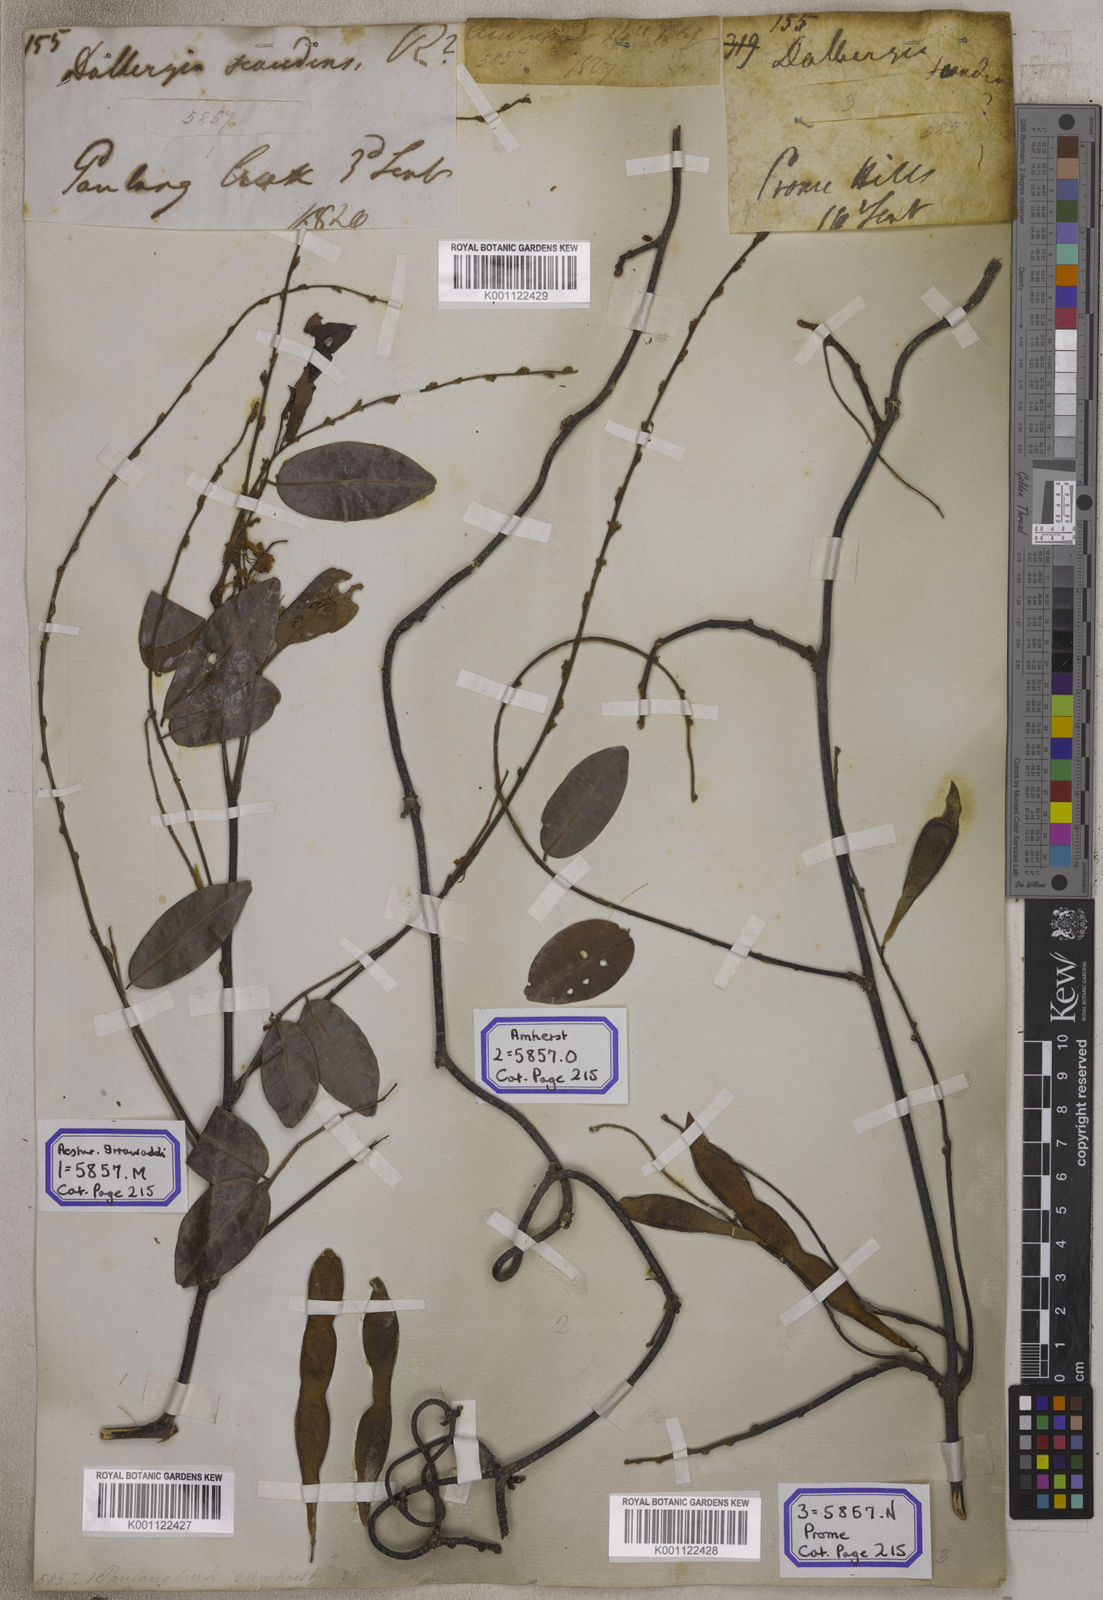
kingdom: Plantae
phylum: Tracheophyta
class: Magnoliopsida
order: Fabales
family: Fabaceae
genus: Brachypterum
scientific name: Brachypterum scandens
